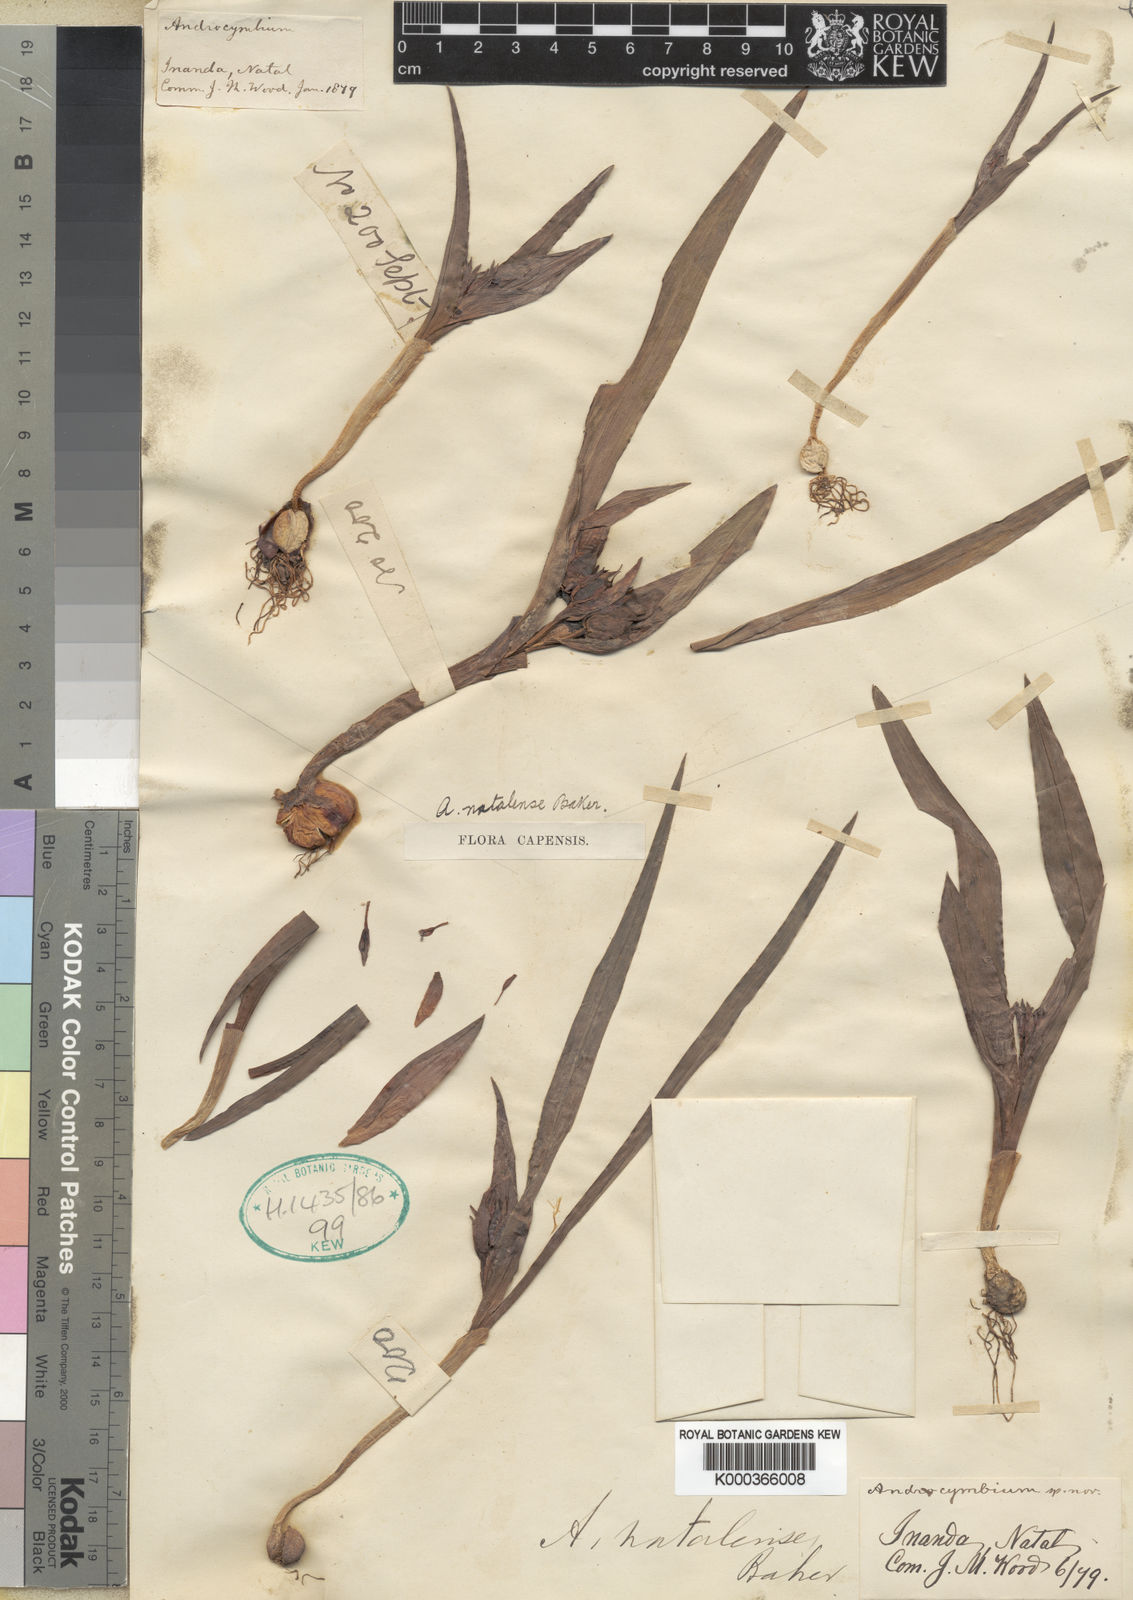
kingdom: Plantae
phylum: Tracheophyta
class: Liliopsida
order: Liliales
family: Colchicaceae
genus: Colchicum
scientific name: Colchicum natalense
